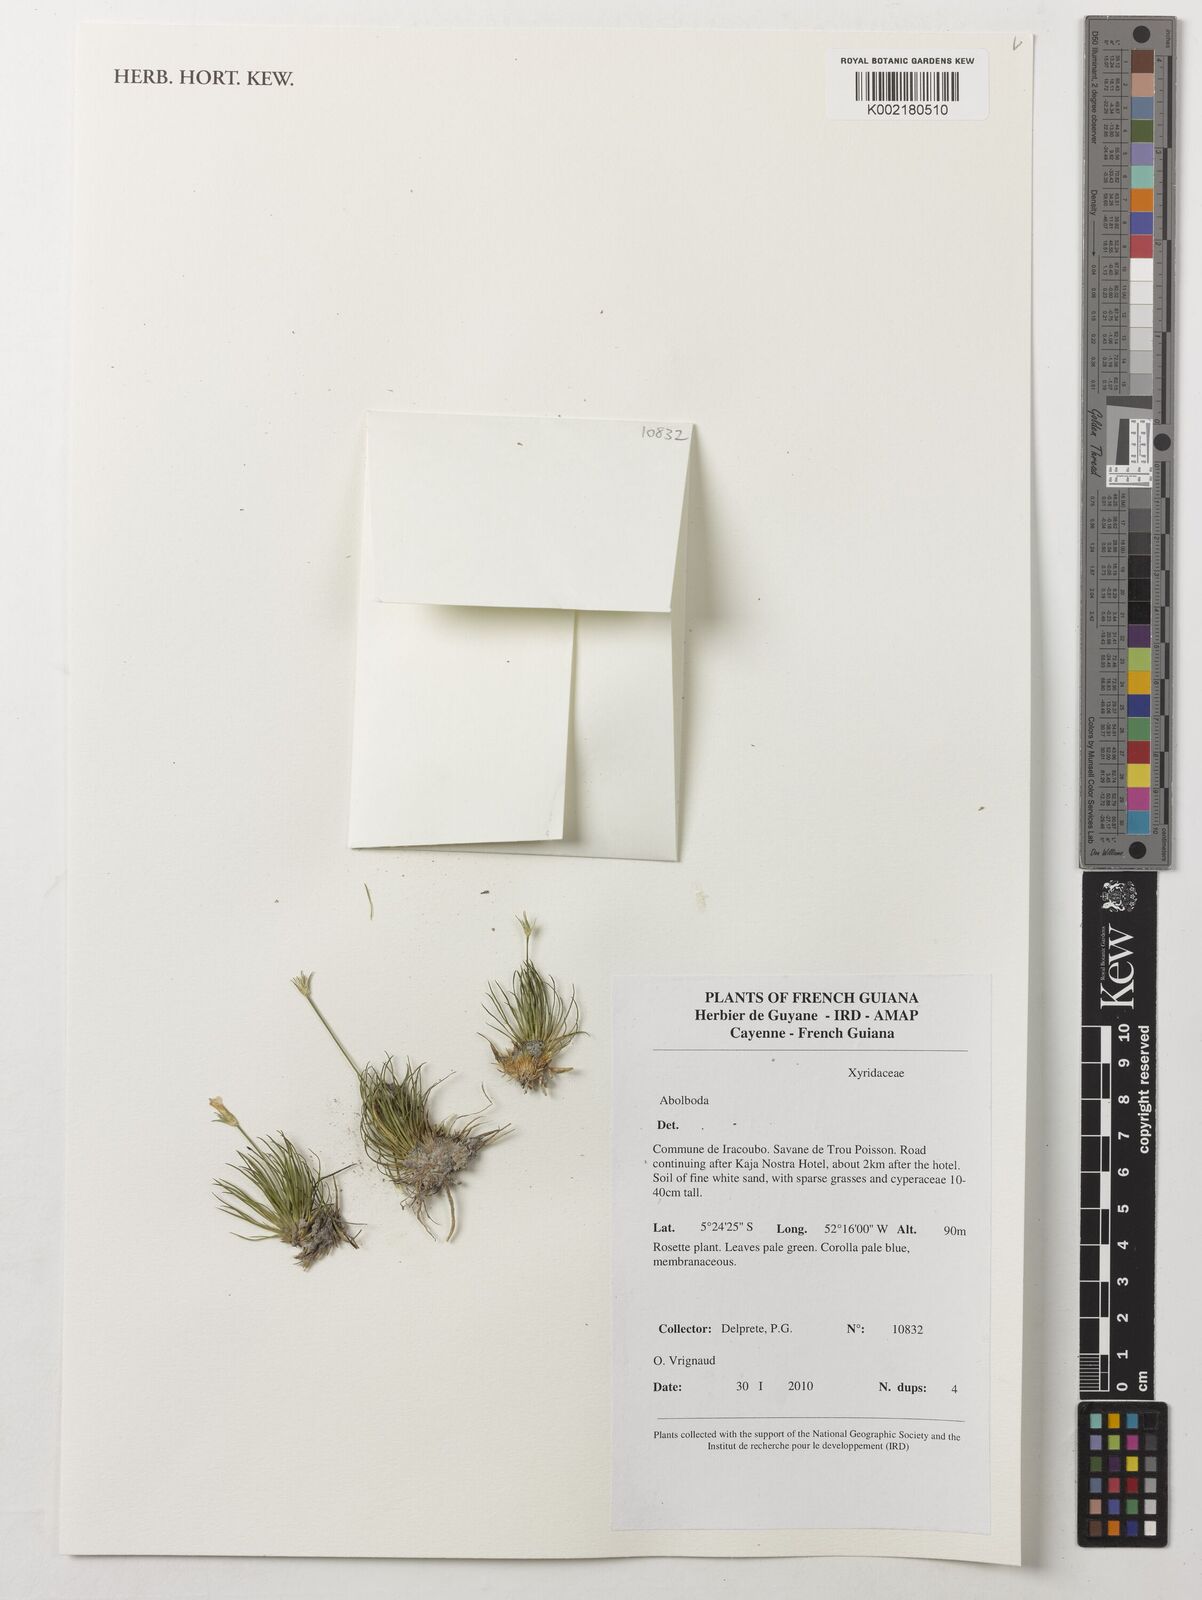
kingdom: Plantae
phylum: Tracheophyta
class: Liliopsida
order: Poales
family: Xyridaceae
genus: Abolboda
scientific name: Abolboda
